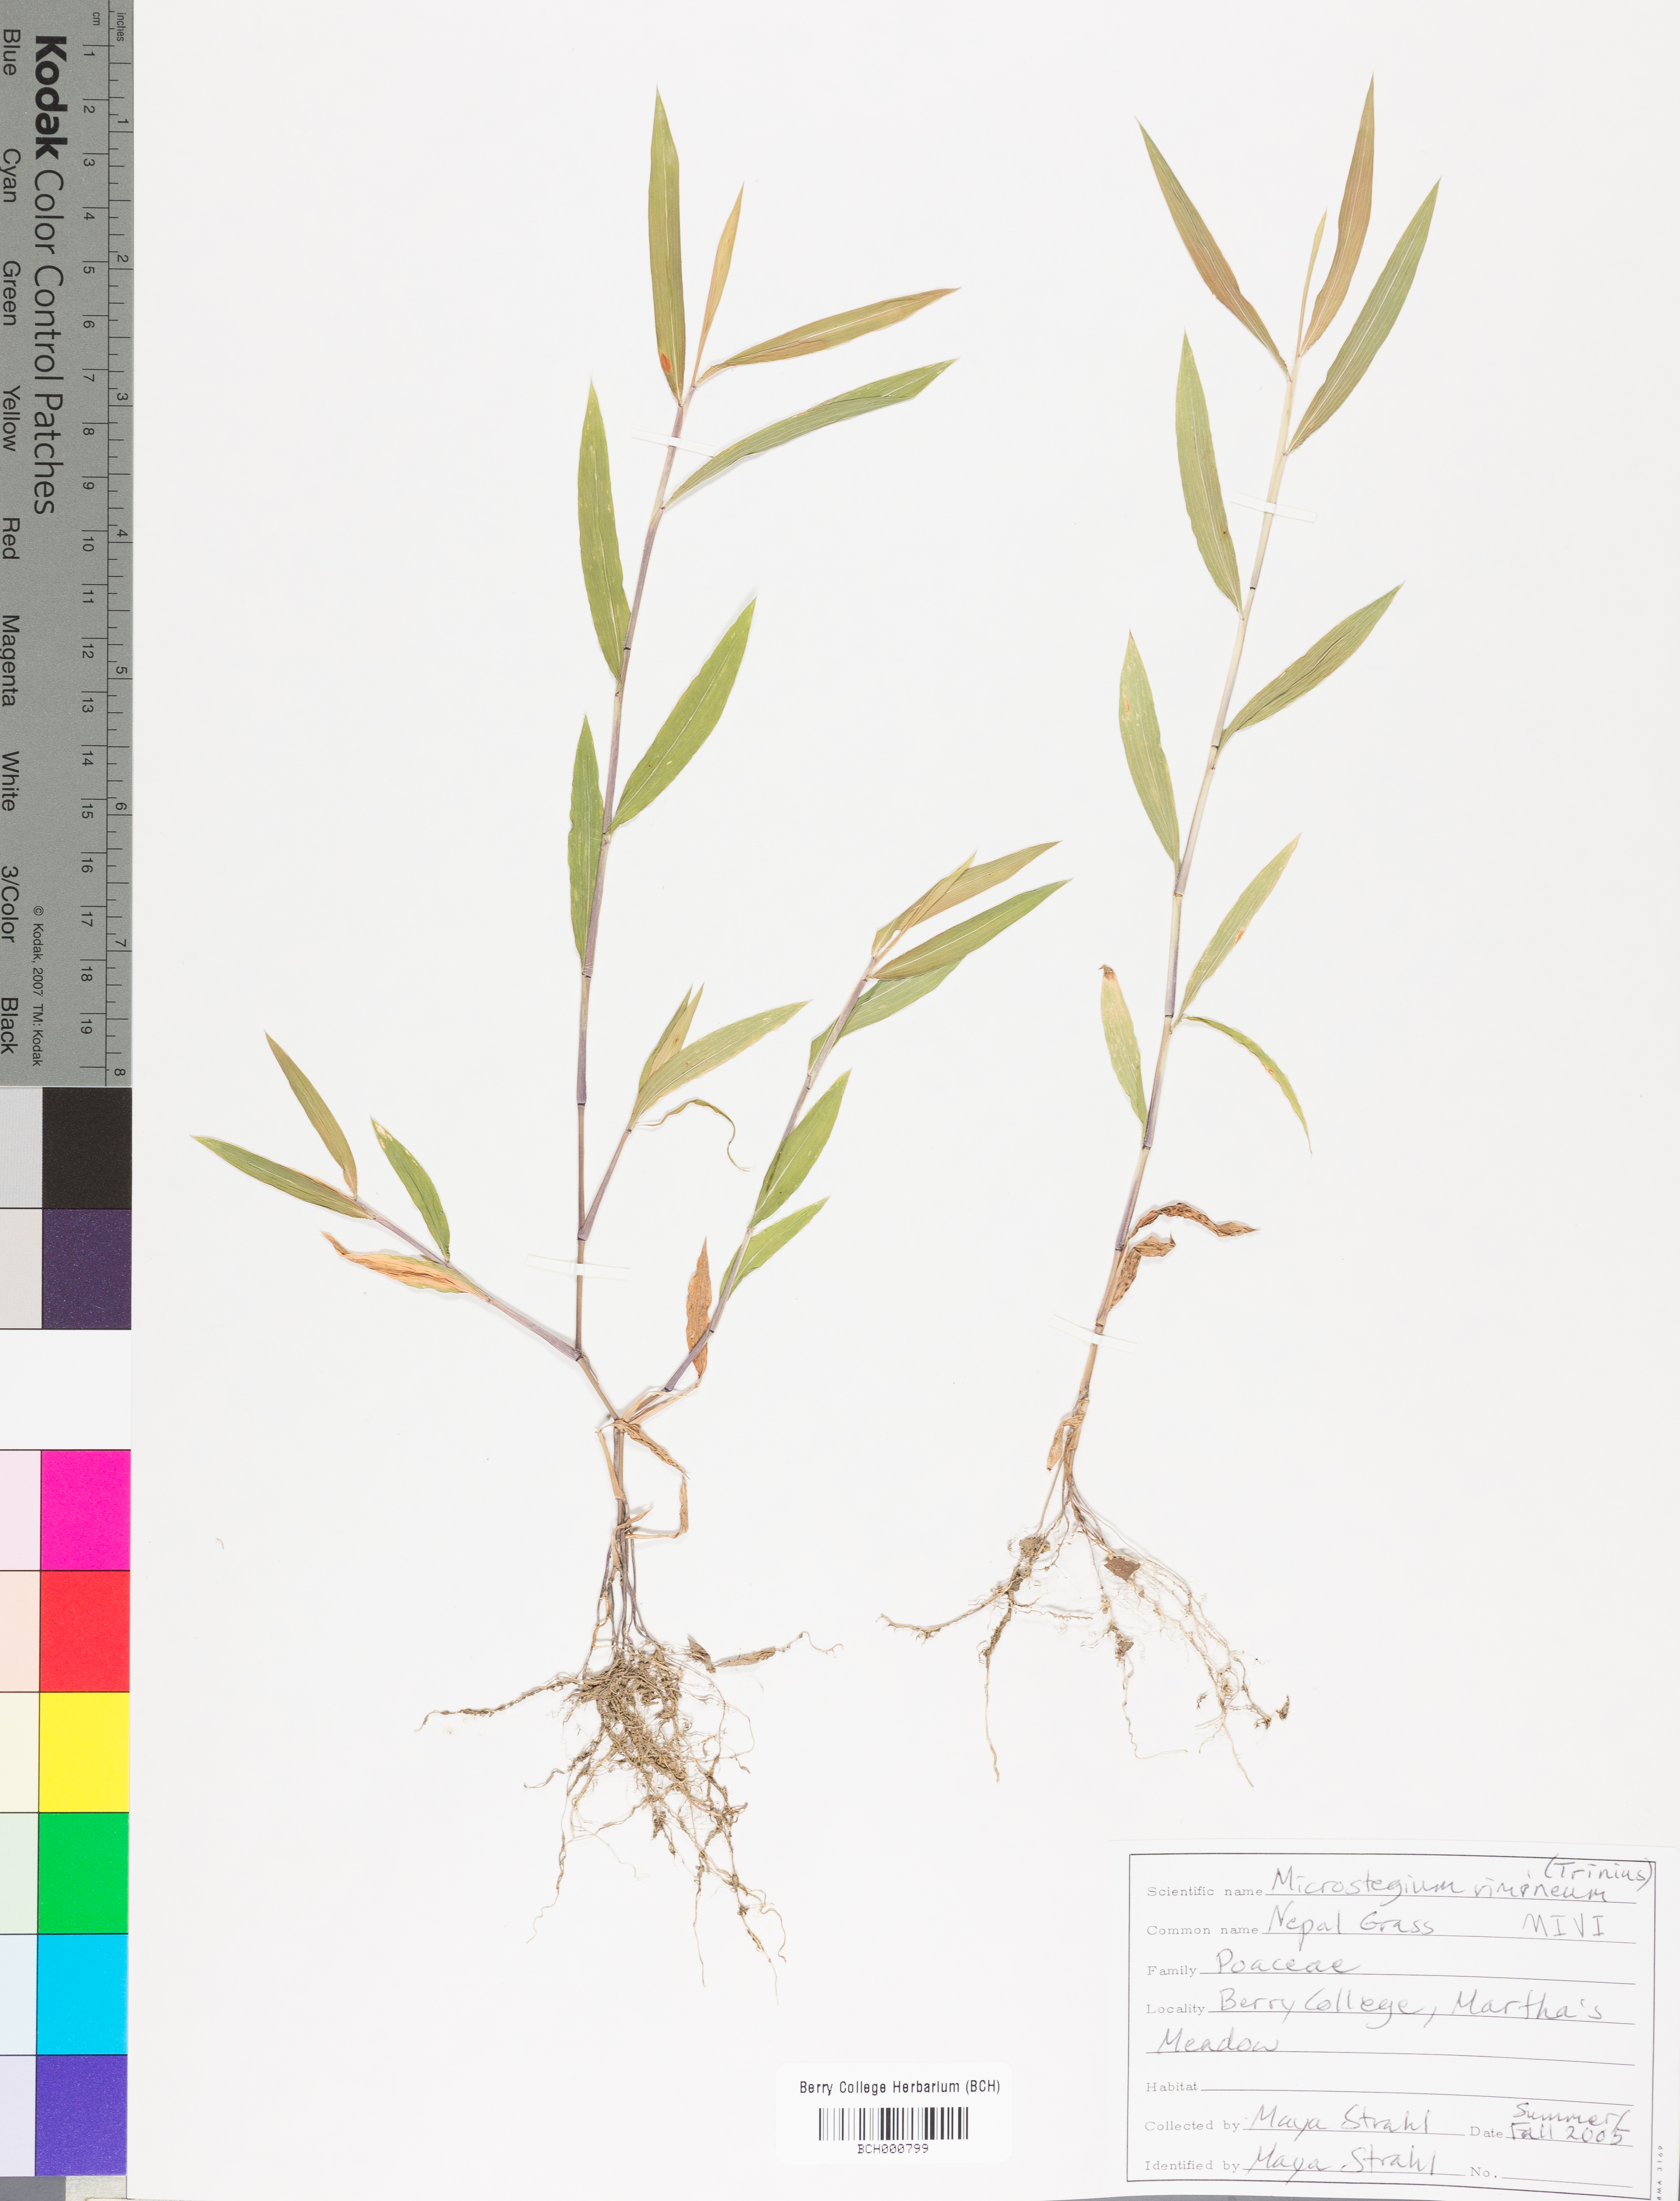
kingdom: Plantae
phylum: Tracheophyta
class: Liliopsida
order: Poales
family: Poaceae
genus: Microstegium
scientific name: Microstegium vimineum
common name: Japanese stiltgrass
